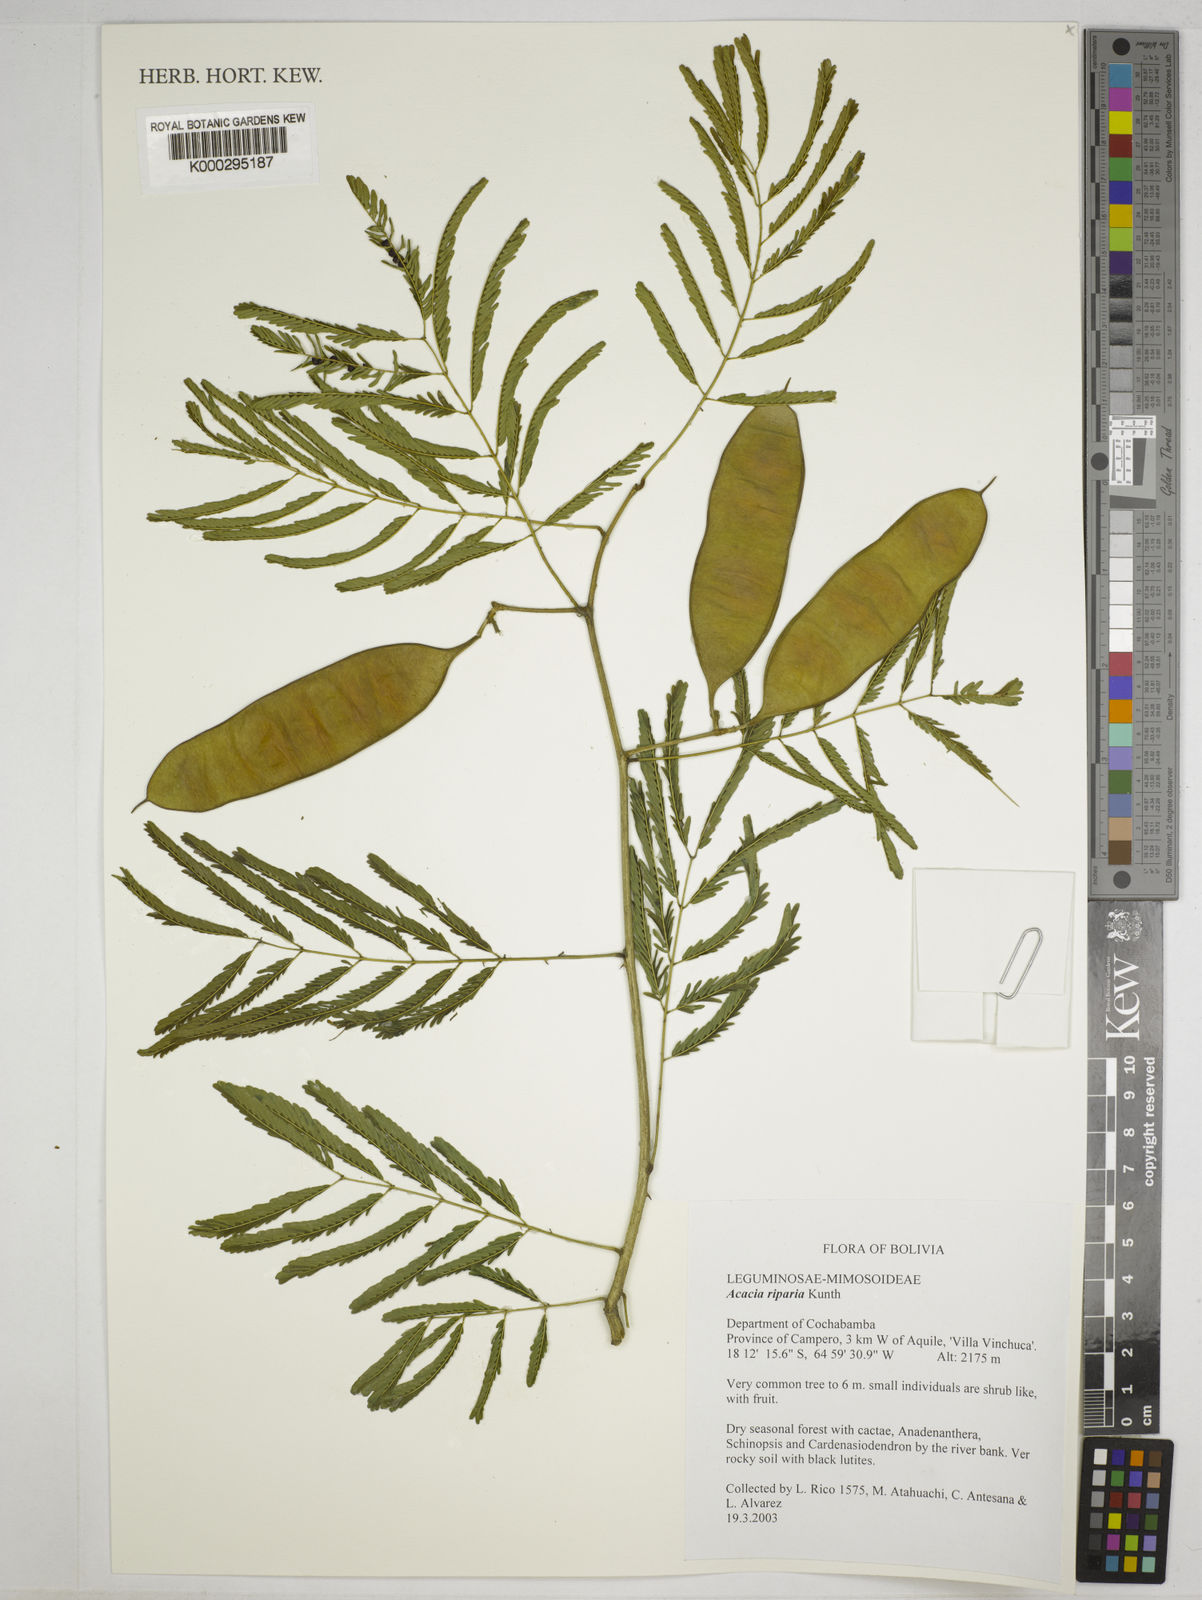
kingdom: Plantae
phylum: Tracheophyta
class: Magnoliopsida
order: Fabales
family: Fabaceae
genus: Senegalia
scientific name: Senegalia riparia
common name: Catch-and-keep
